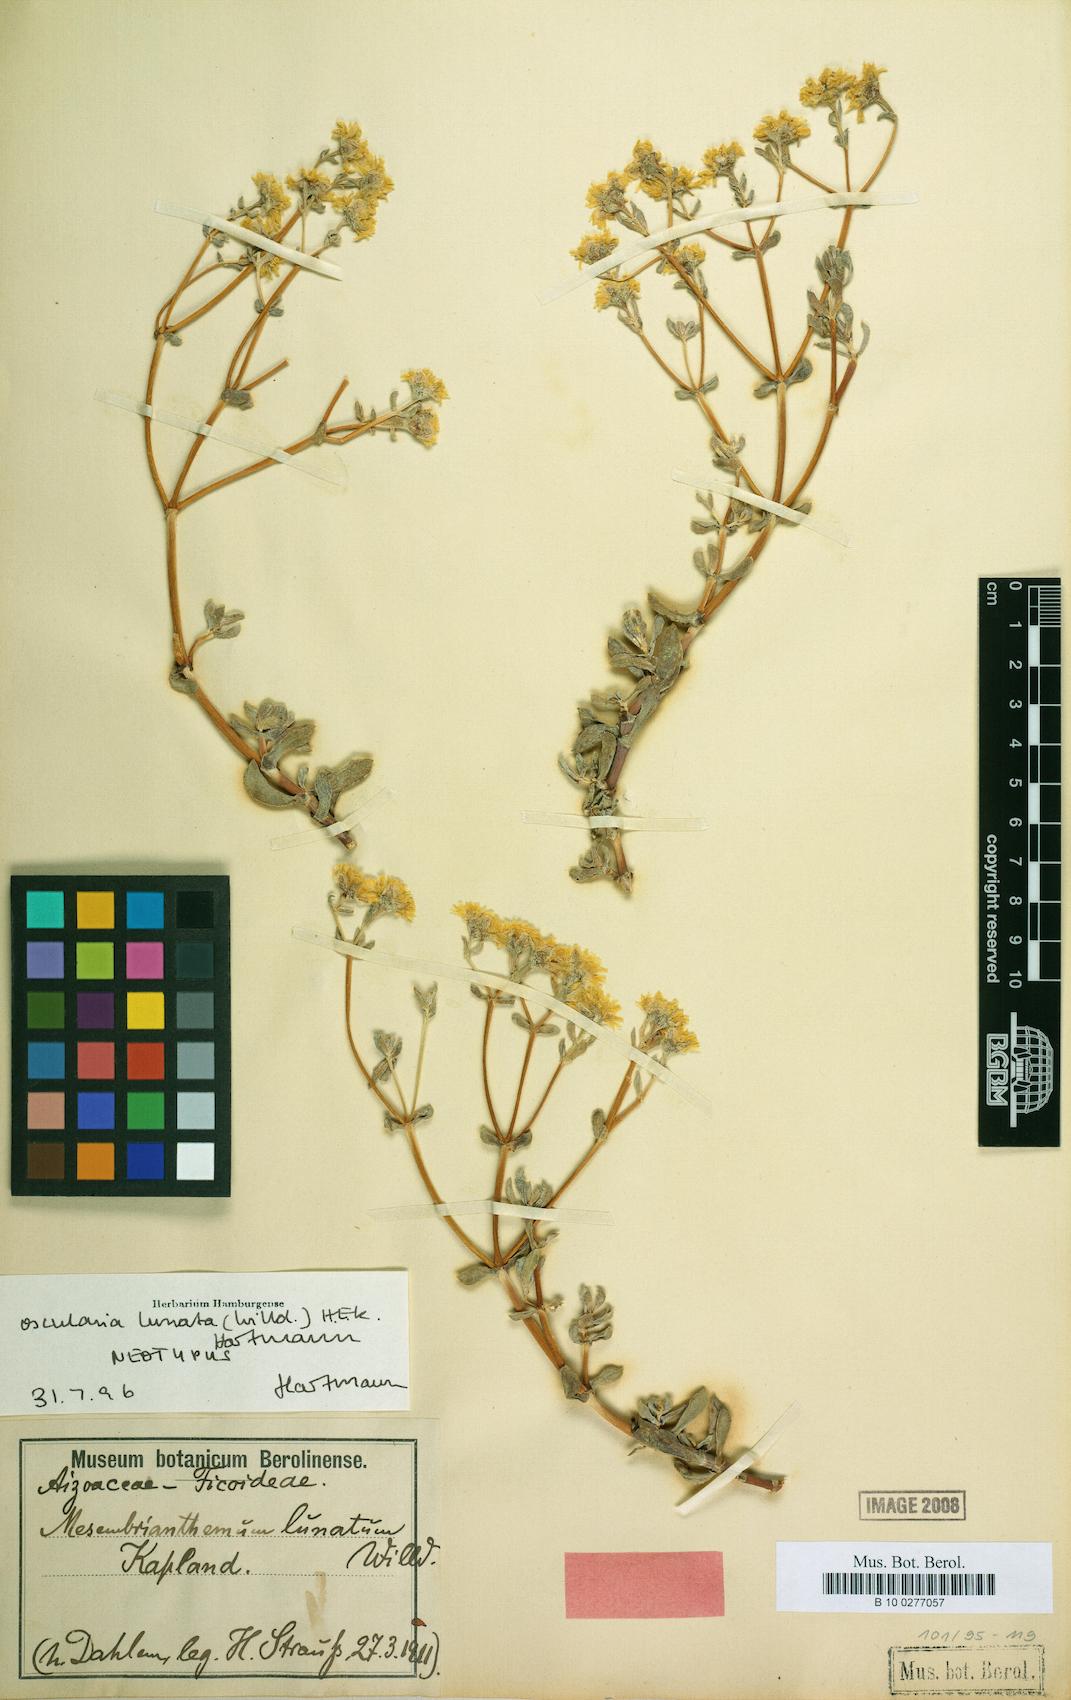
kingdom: Plantae
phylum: Tracheophyta
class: Magnoliopsida
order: Caryophyllales
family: Aizoaceae
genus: Oscularia
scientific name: Oscularia lunata
